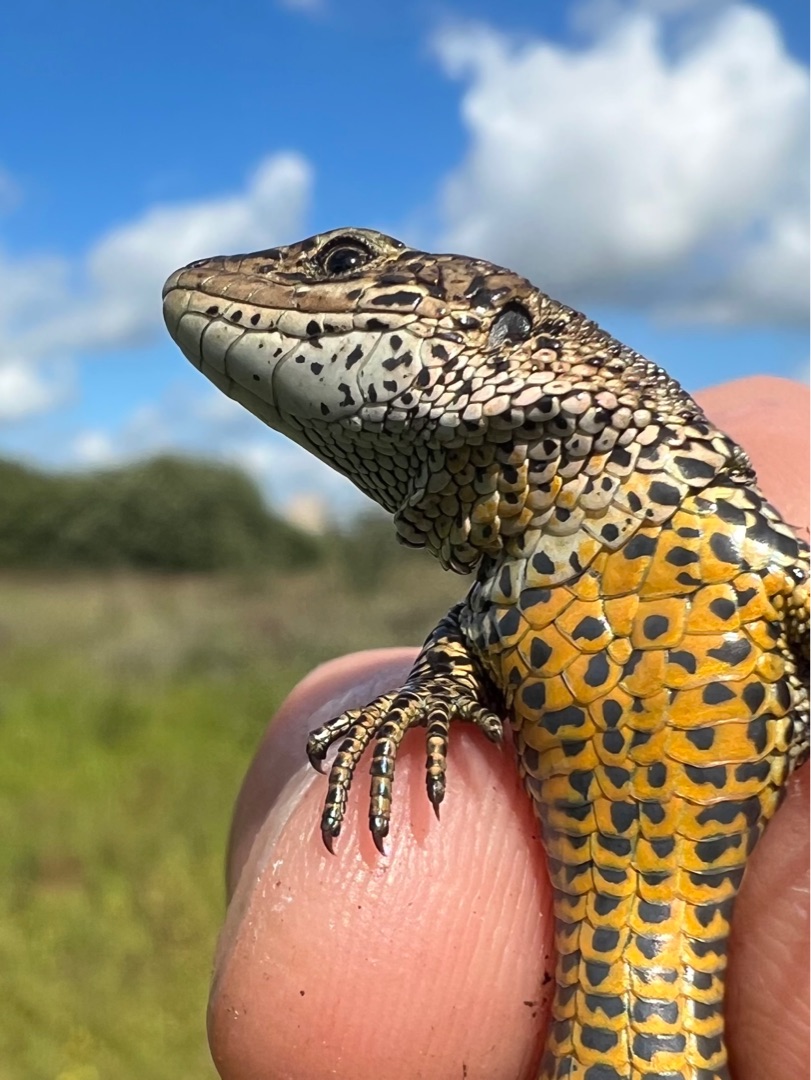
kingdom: Animalia
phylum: Chordata
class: Squamata
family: Lacertidae
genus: Zootoca
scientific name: Zootoca vivipara
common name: Skovfirben
